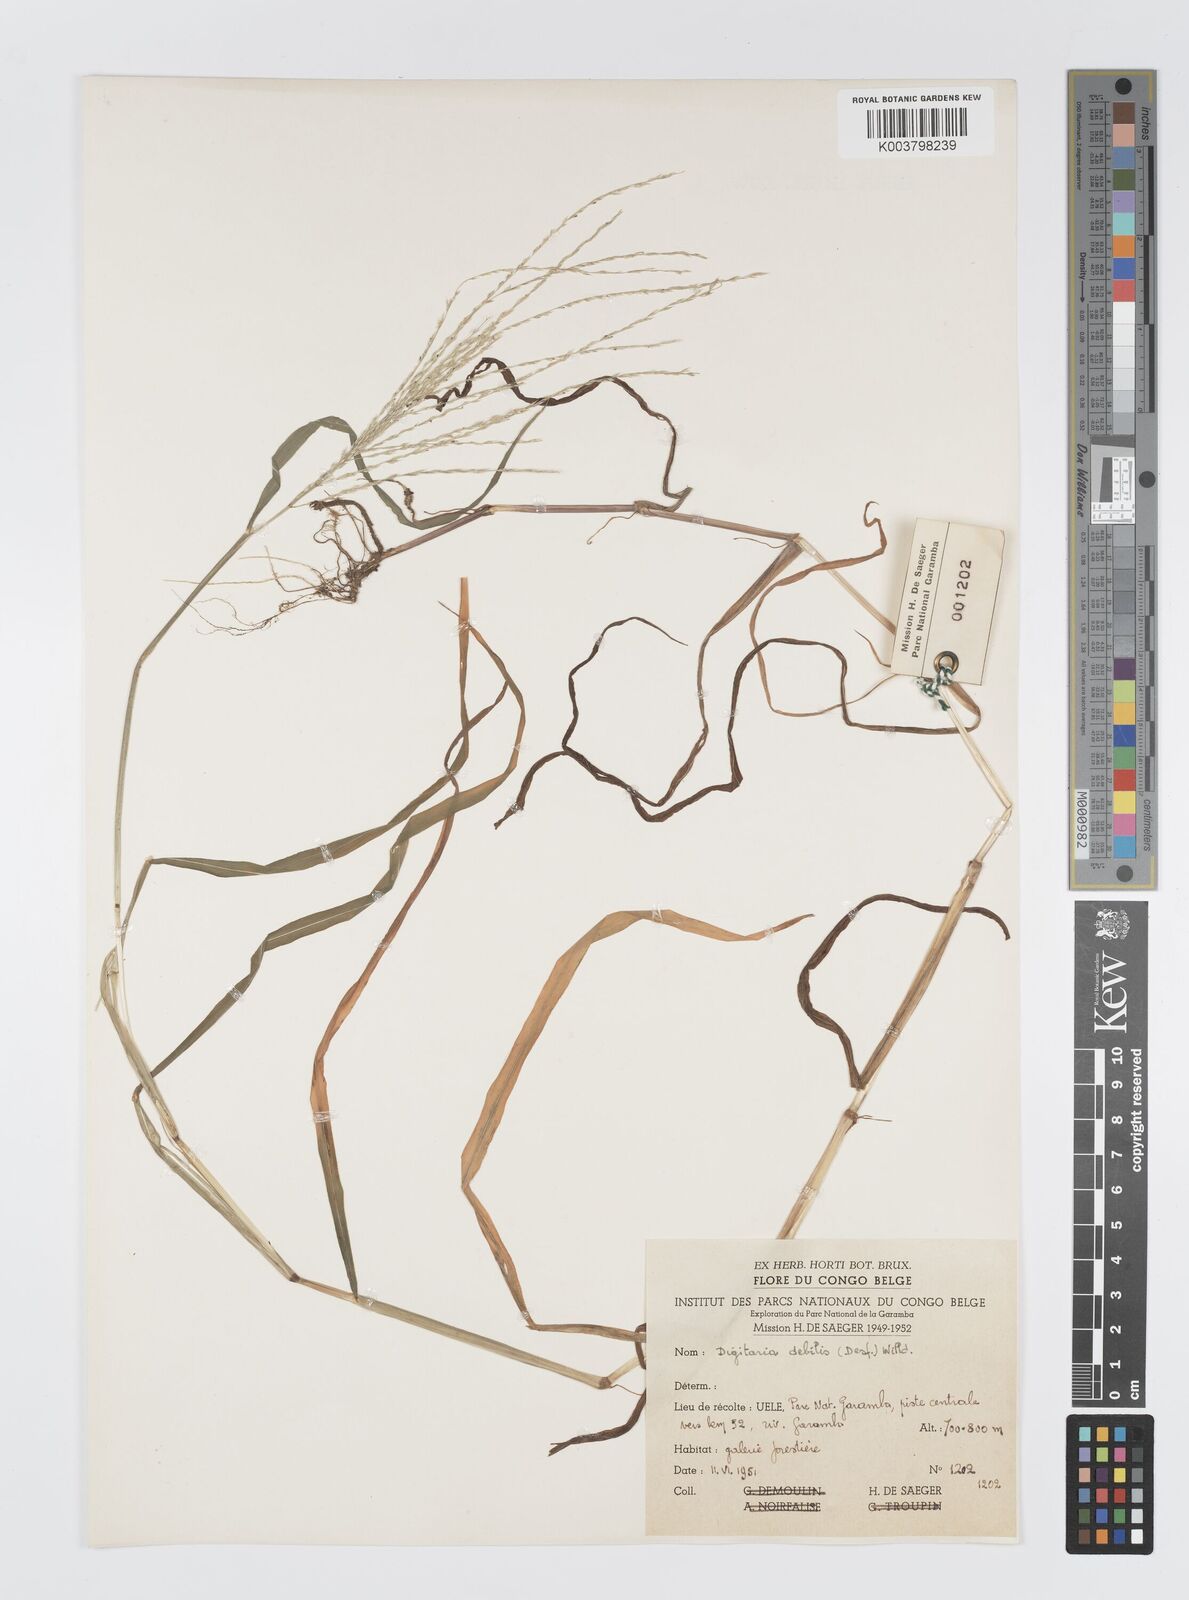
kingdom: Plantae
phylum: Tracheophyta
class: Liliopsida
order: Poales
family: Poaceae
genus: Digitaria
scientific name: Digitaria debilis
